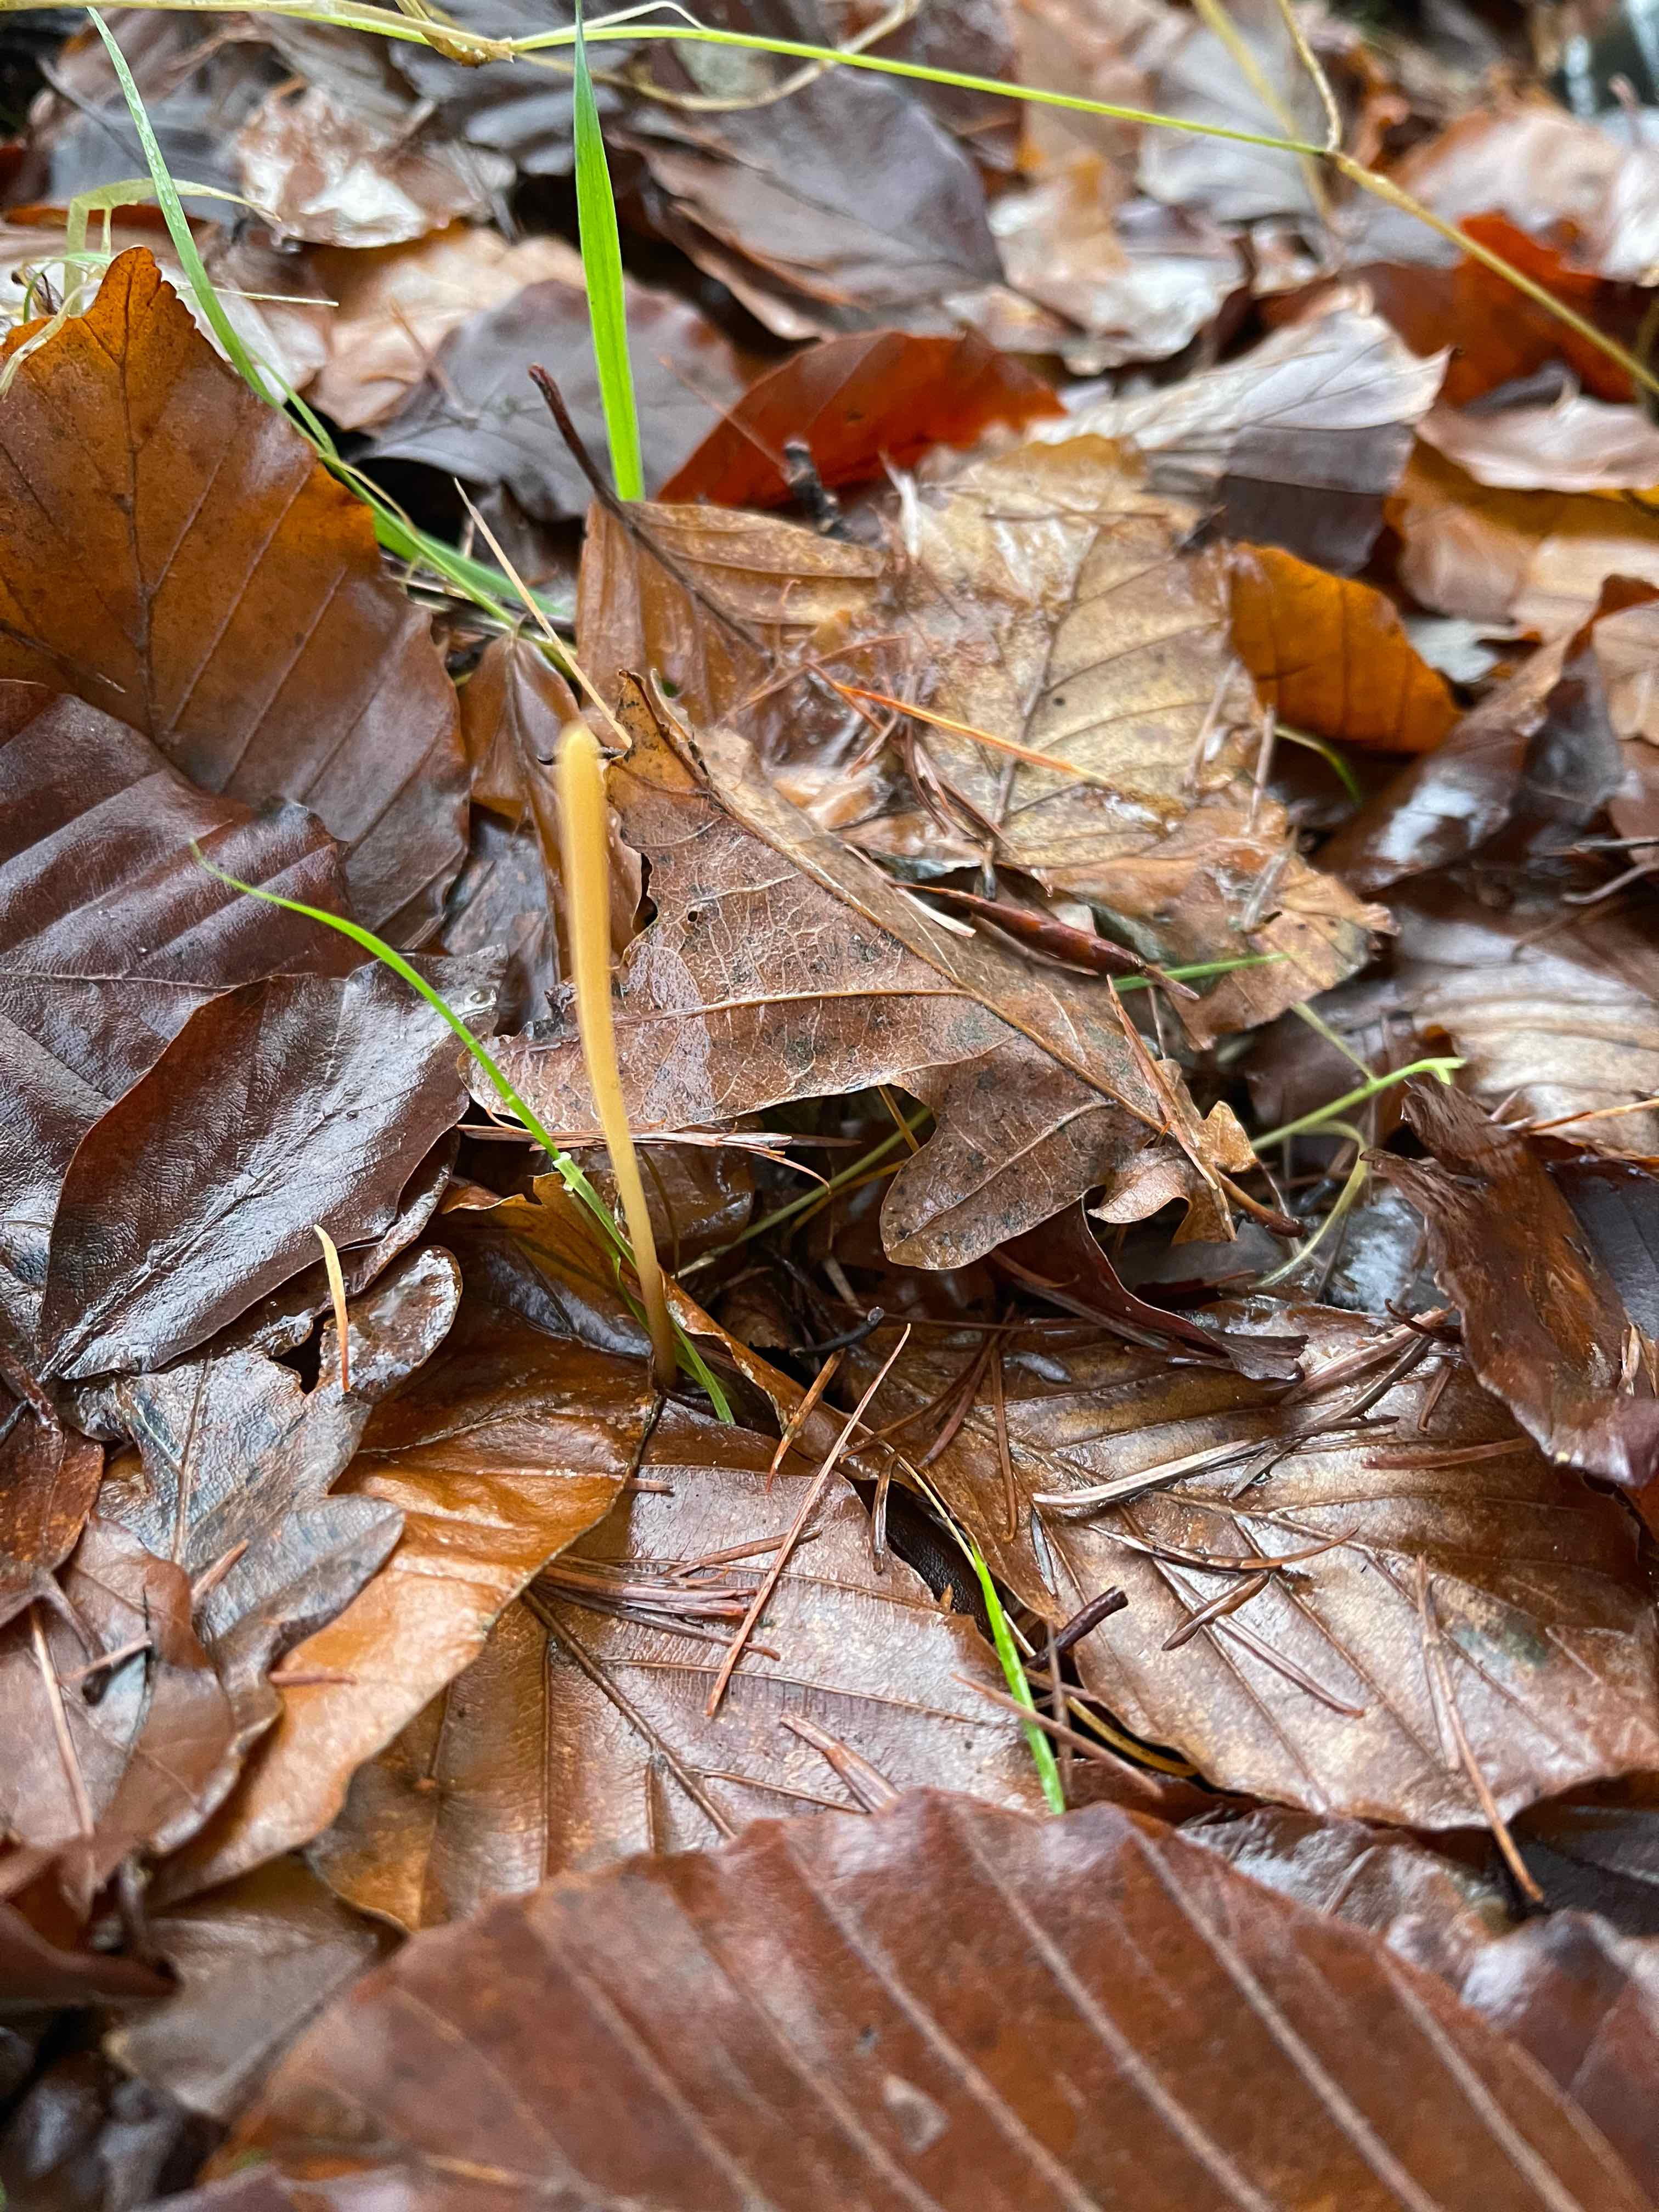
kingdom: Fungi
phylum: Basidiomycota
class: Agaricomycetes
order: Agaricales
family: Typhulaceae
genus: Typhula
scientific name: Typhula fistulosa
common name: pibet rørkølle
